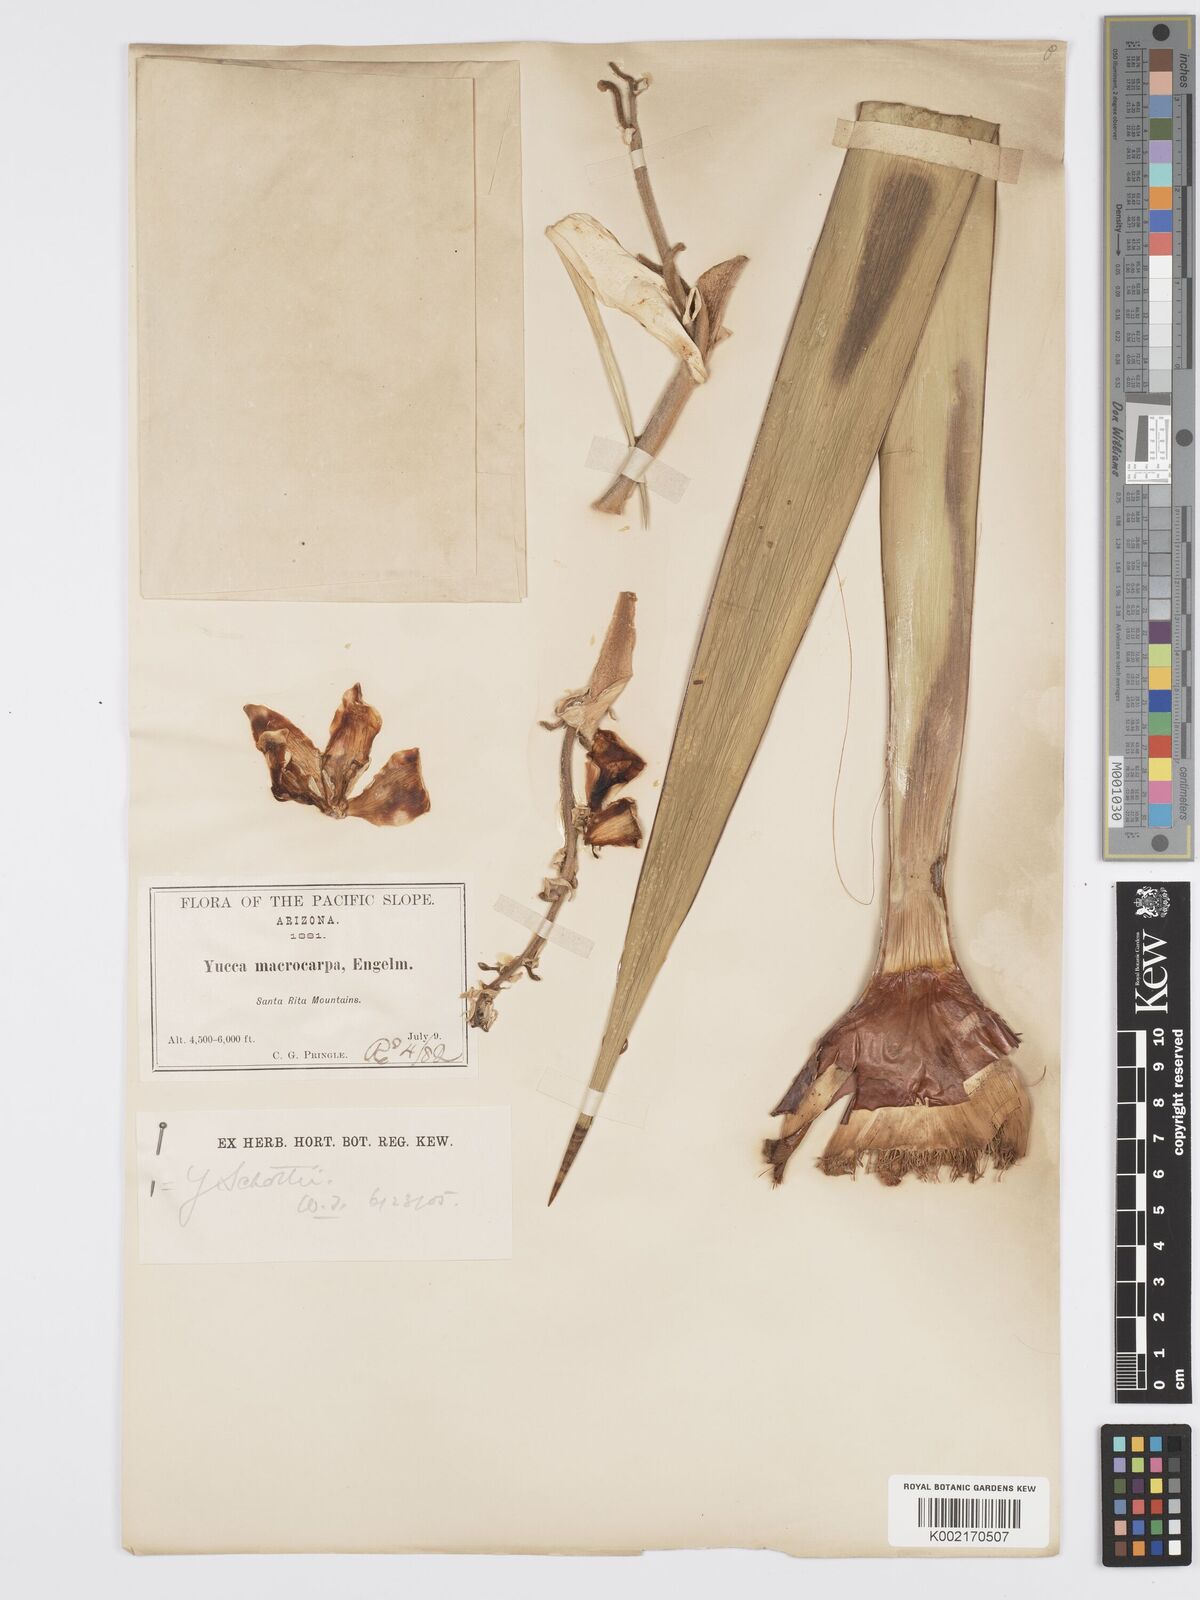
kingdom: Plantae
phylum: Tracheophyta
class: Liliopsida
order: Asparagales
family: Asparagaceae
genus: Yucca
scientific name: Yucca schottii
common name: Hoary yucca
